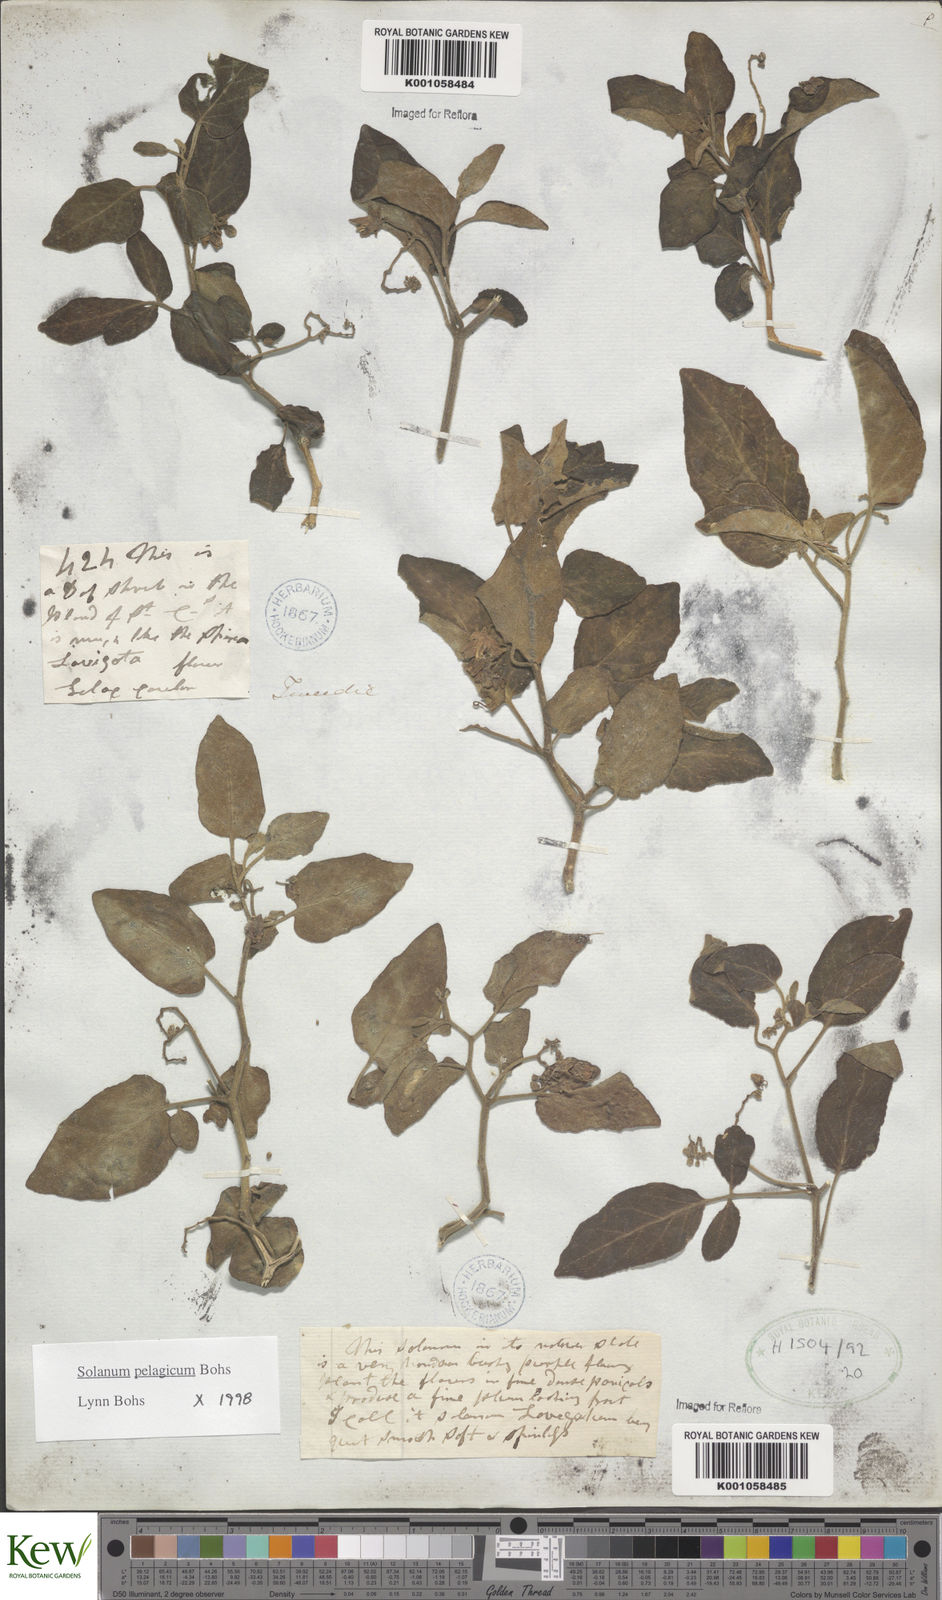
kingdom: Plantae
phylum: Tracheophyta
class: Magnoliopsida
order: Solanales
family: Solanaceae
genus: Solanum
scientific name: Solanum pelagicum
